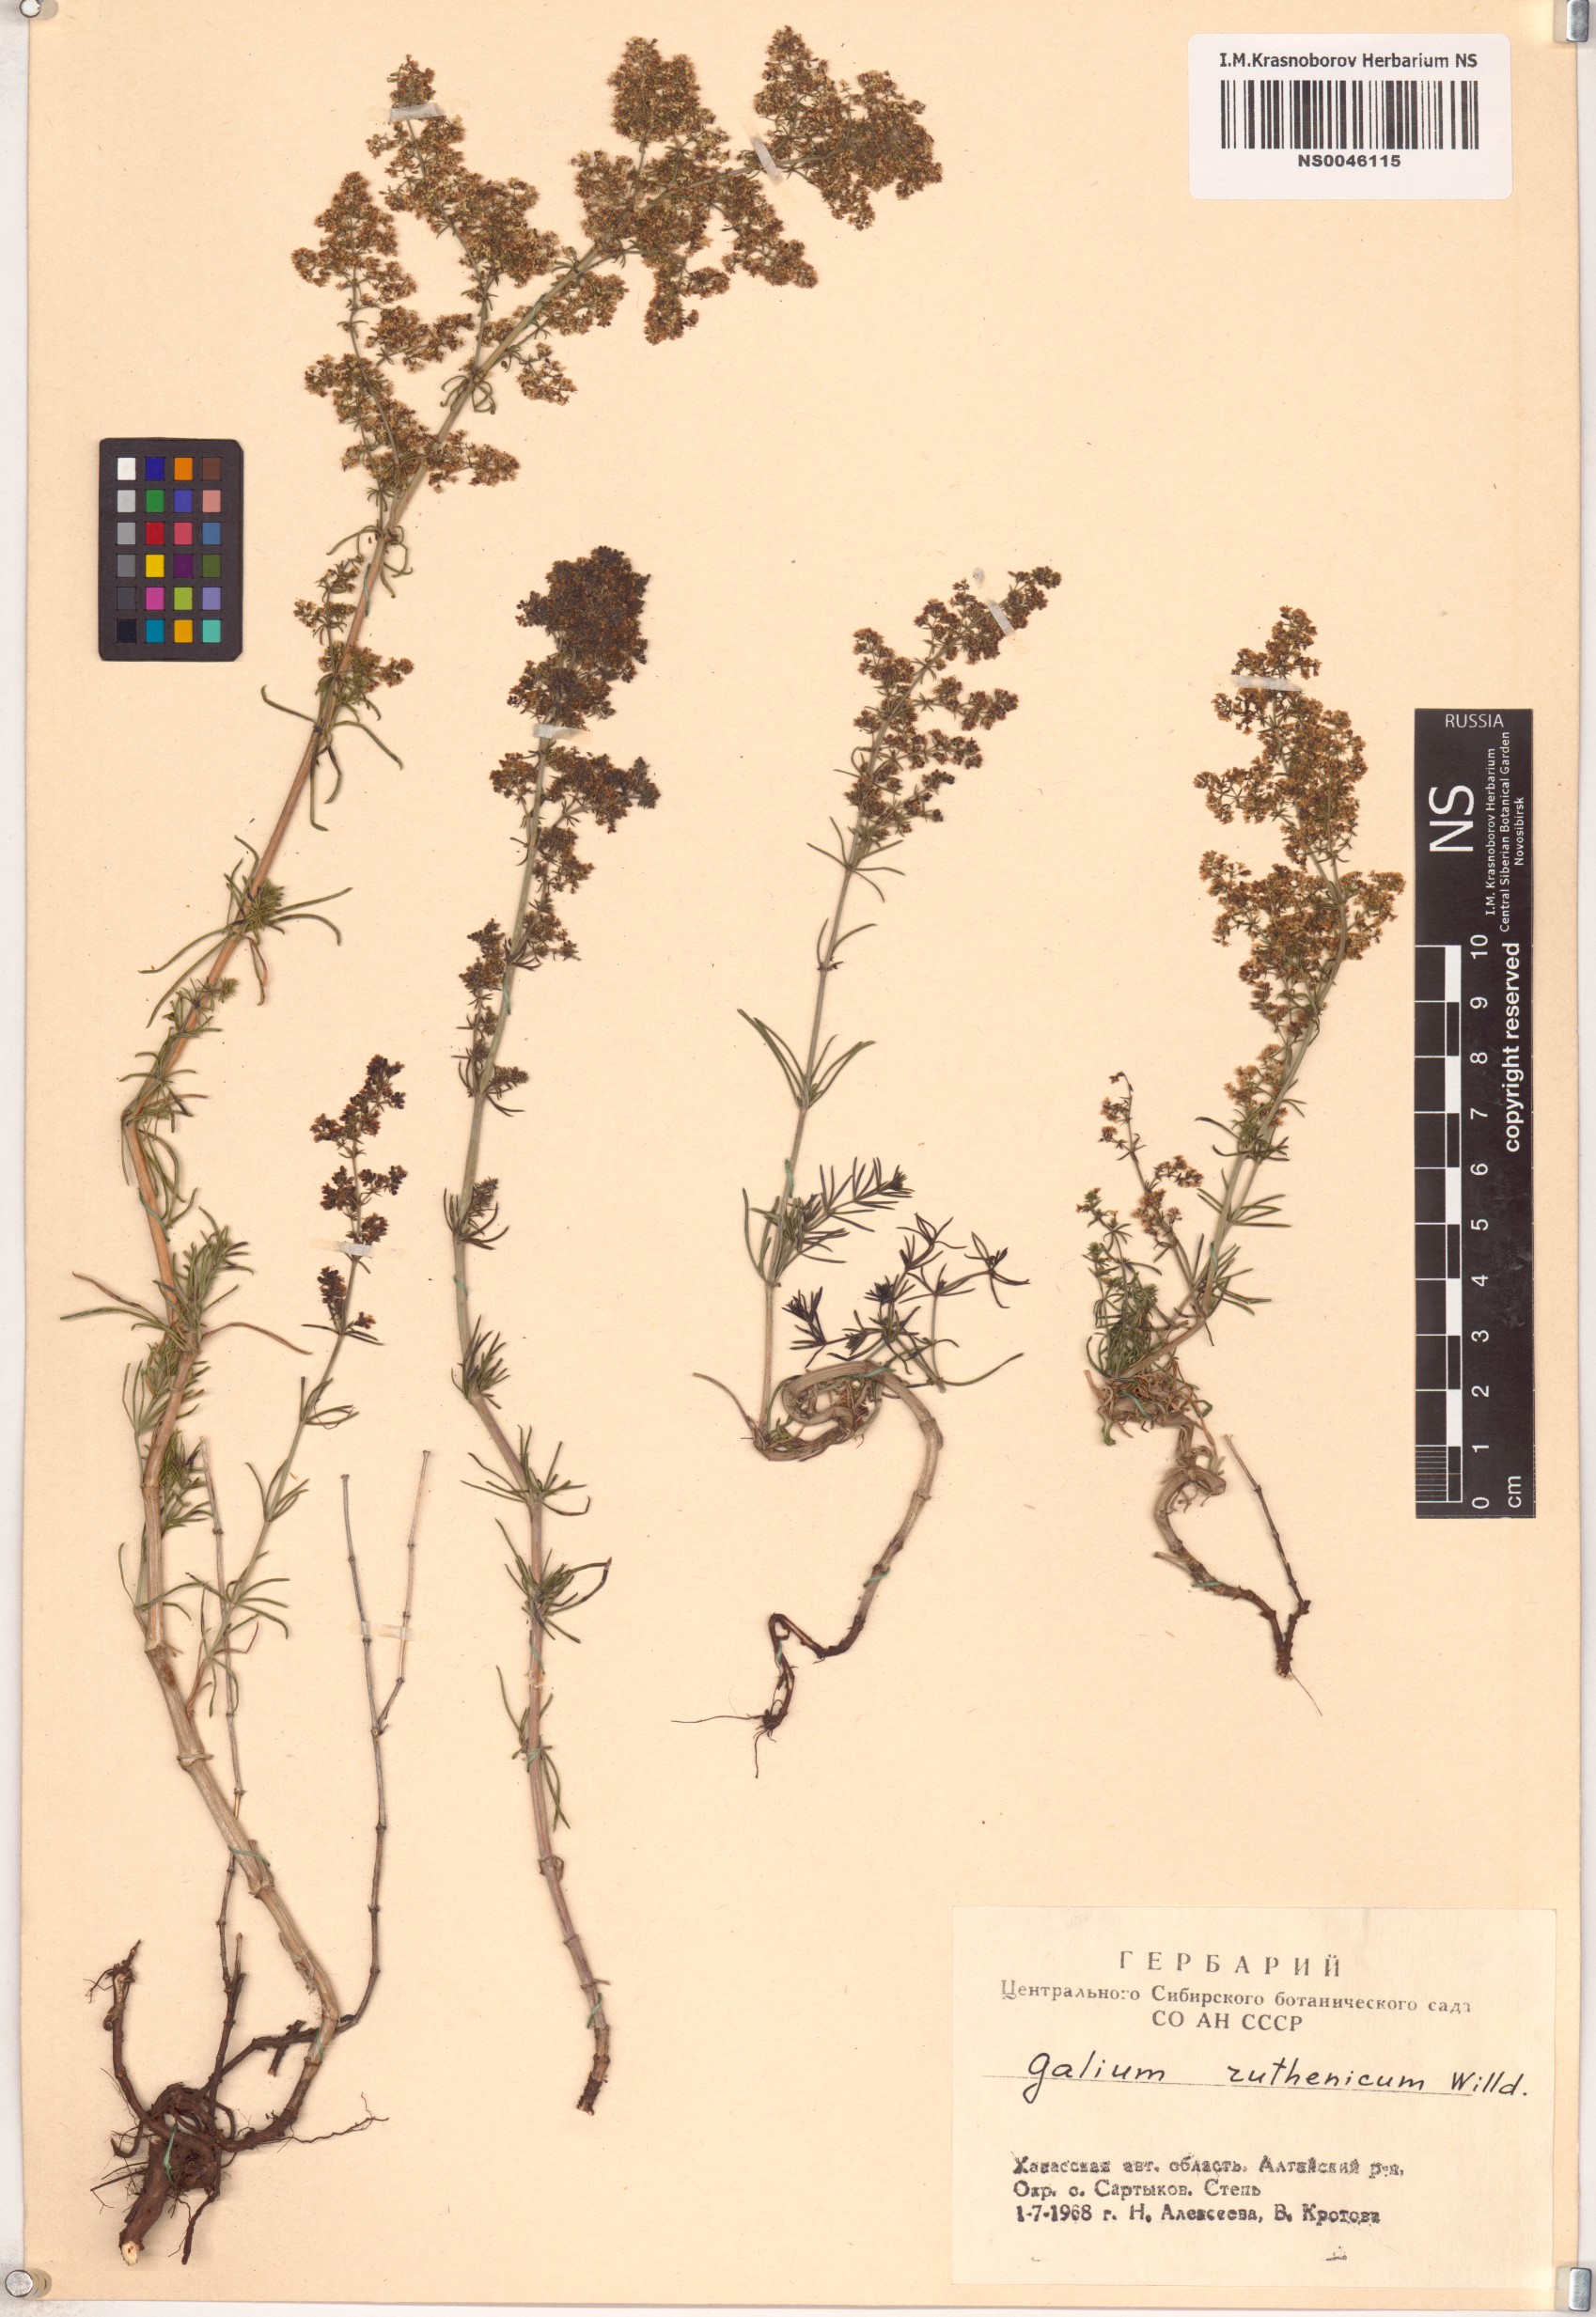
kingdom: Plantae
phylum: Tracheophyta
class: Magnoliopsida
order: Gentianales
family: Rubiaceae
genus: Galium
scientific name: Galium verum
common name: Lady's bedstraw
